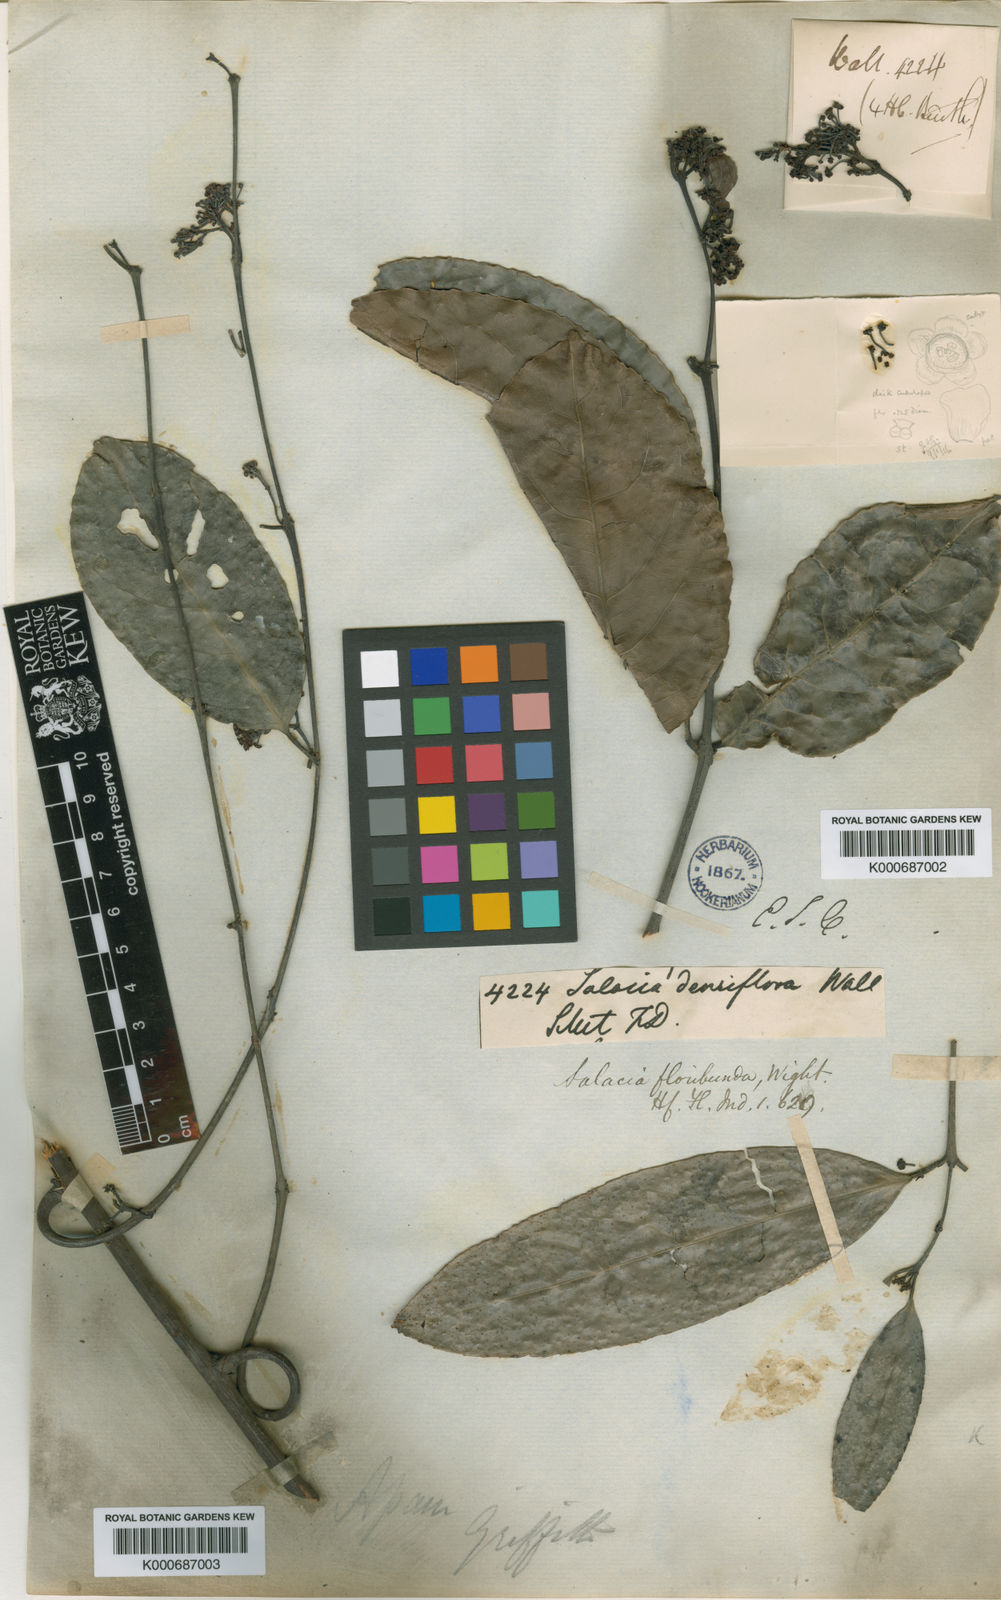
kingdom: Plantae
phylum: Tracheophyta
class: Magnoliopsida
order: Celastrales
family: Celastraceae
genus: Salacia
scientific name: Salacia floribunda
